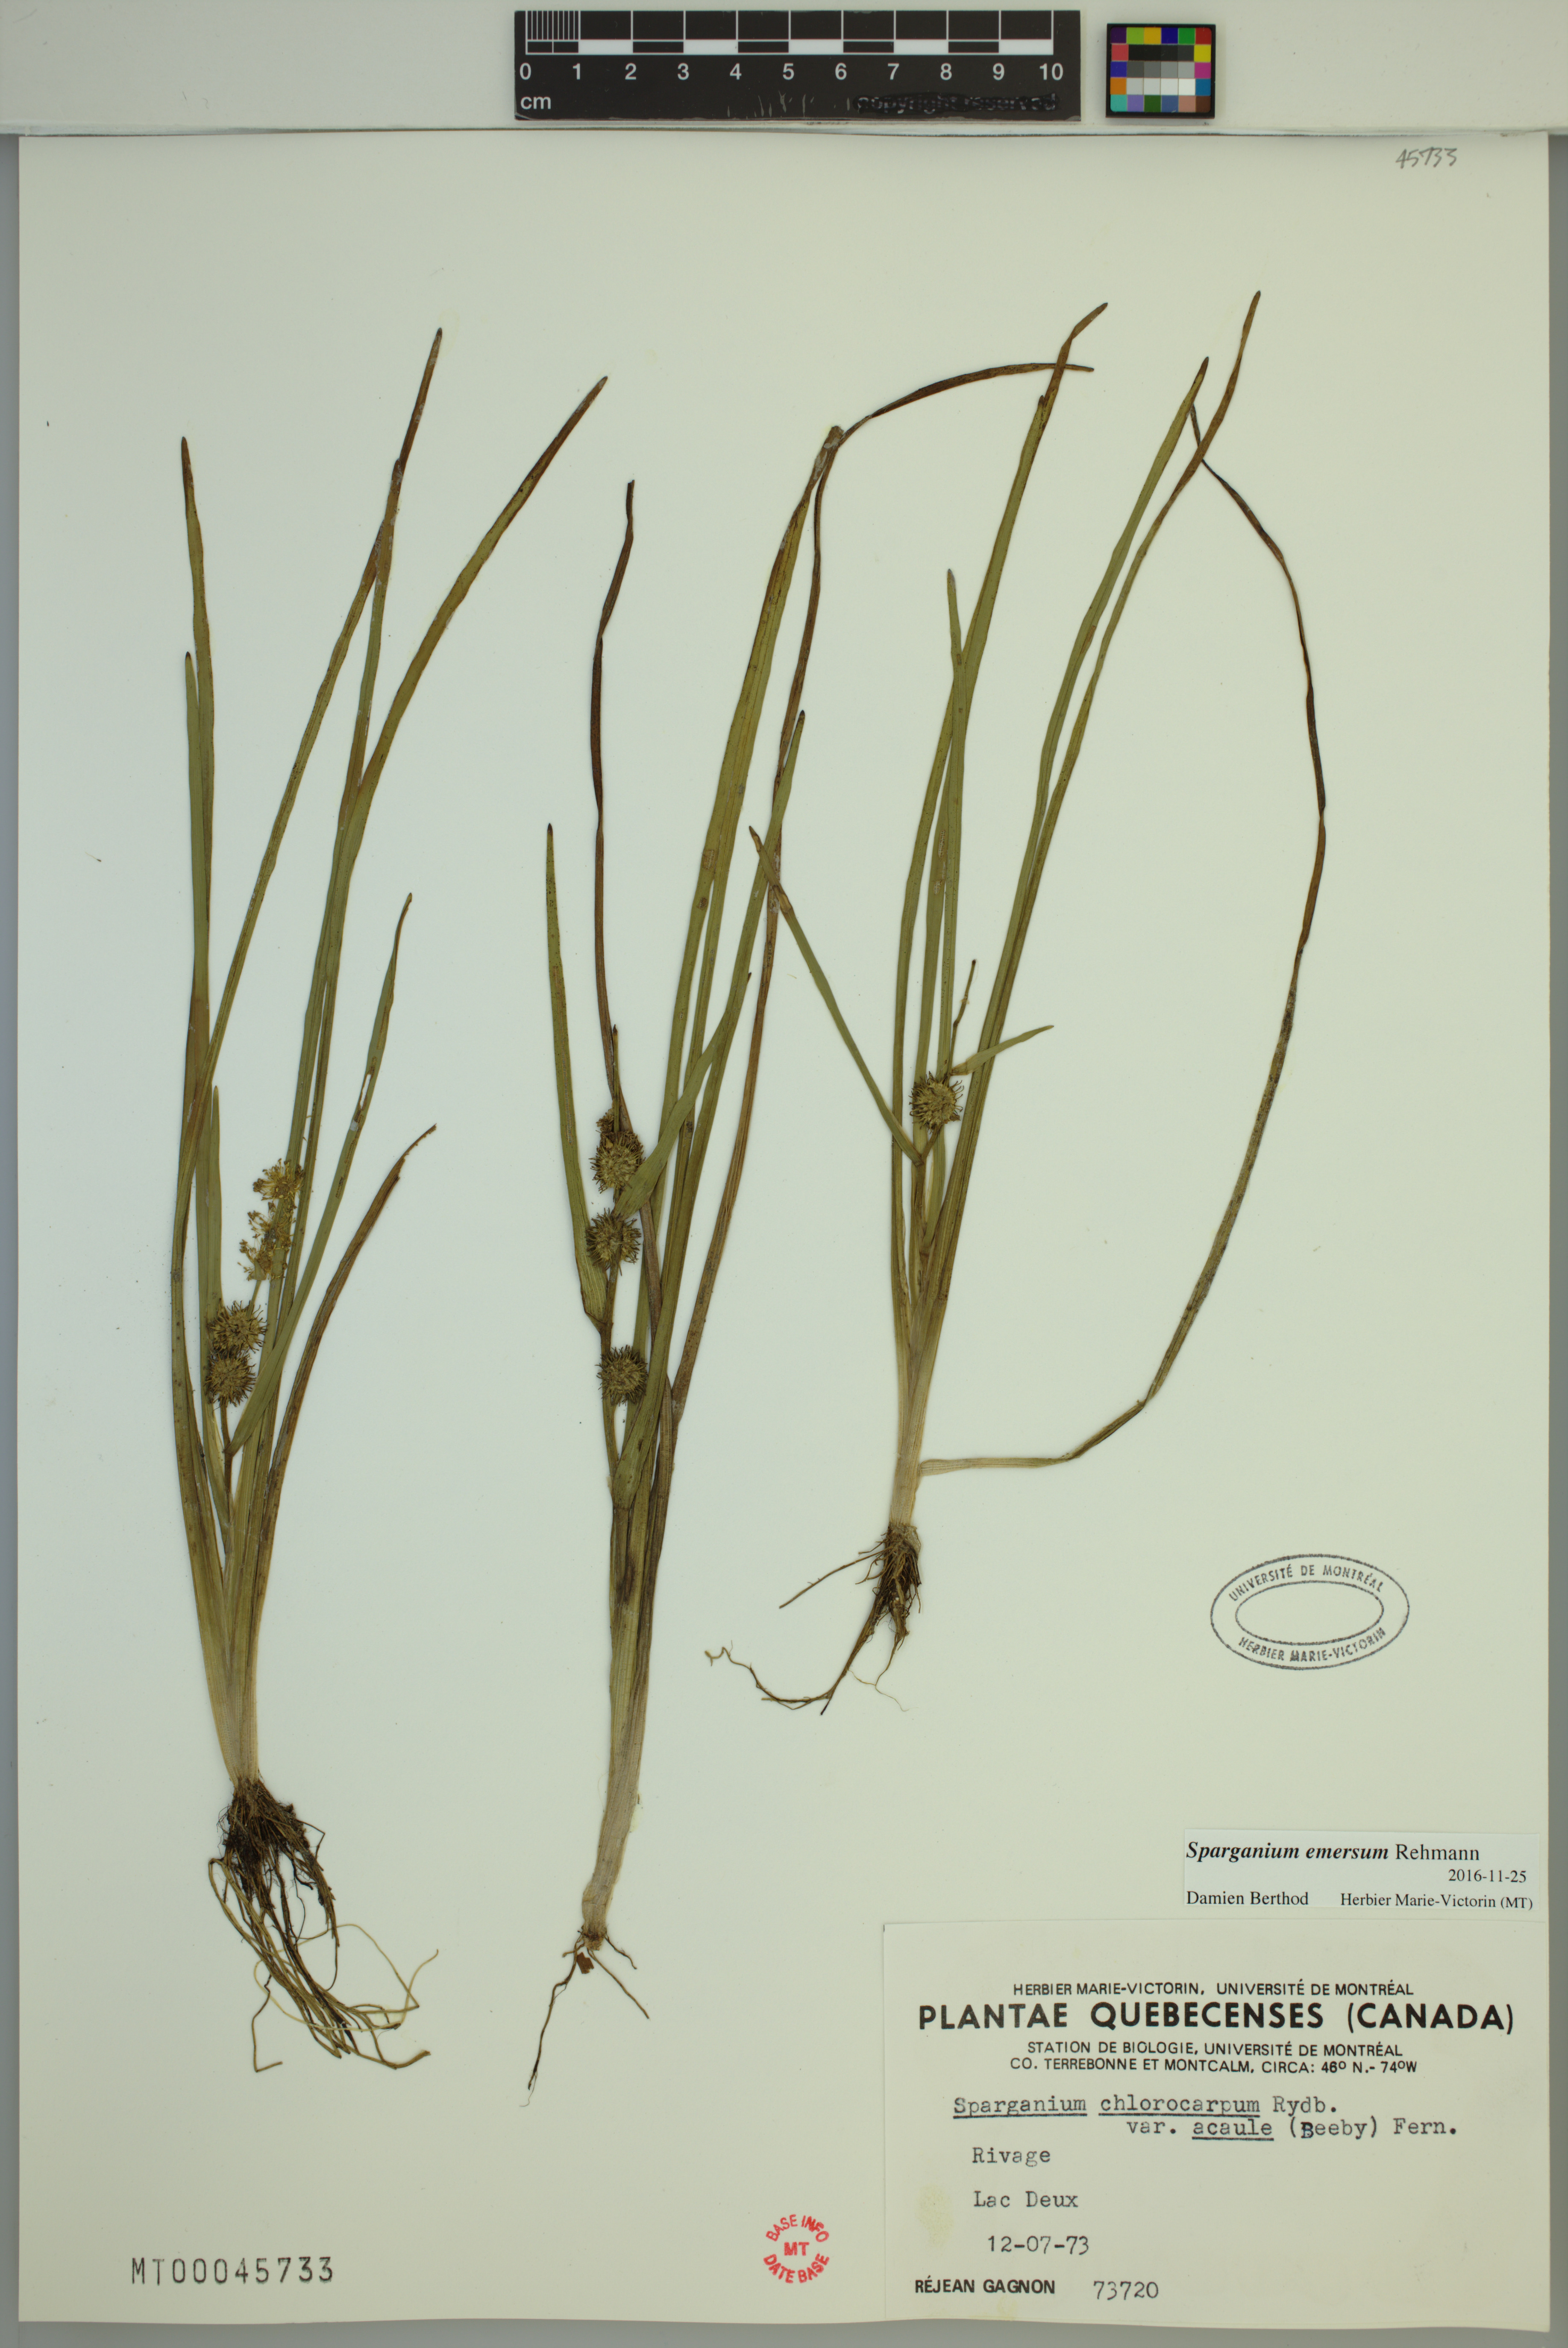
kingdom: Plantae
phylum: Tracheophyta
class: Liliopsida
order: Poales
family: Typhaceae
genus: Sparganium
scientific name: Sparganium emersum
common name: Unbranched bur-reed
